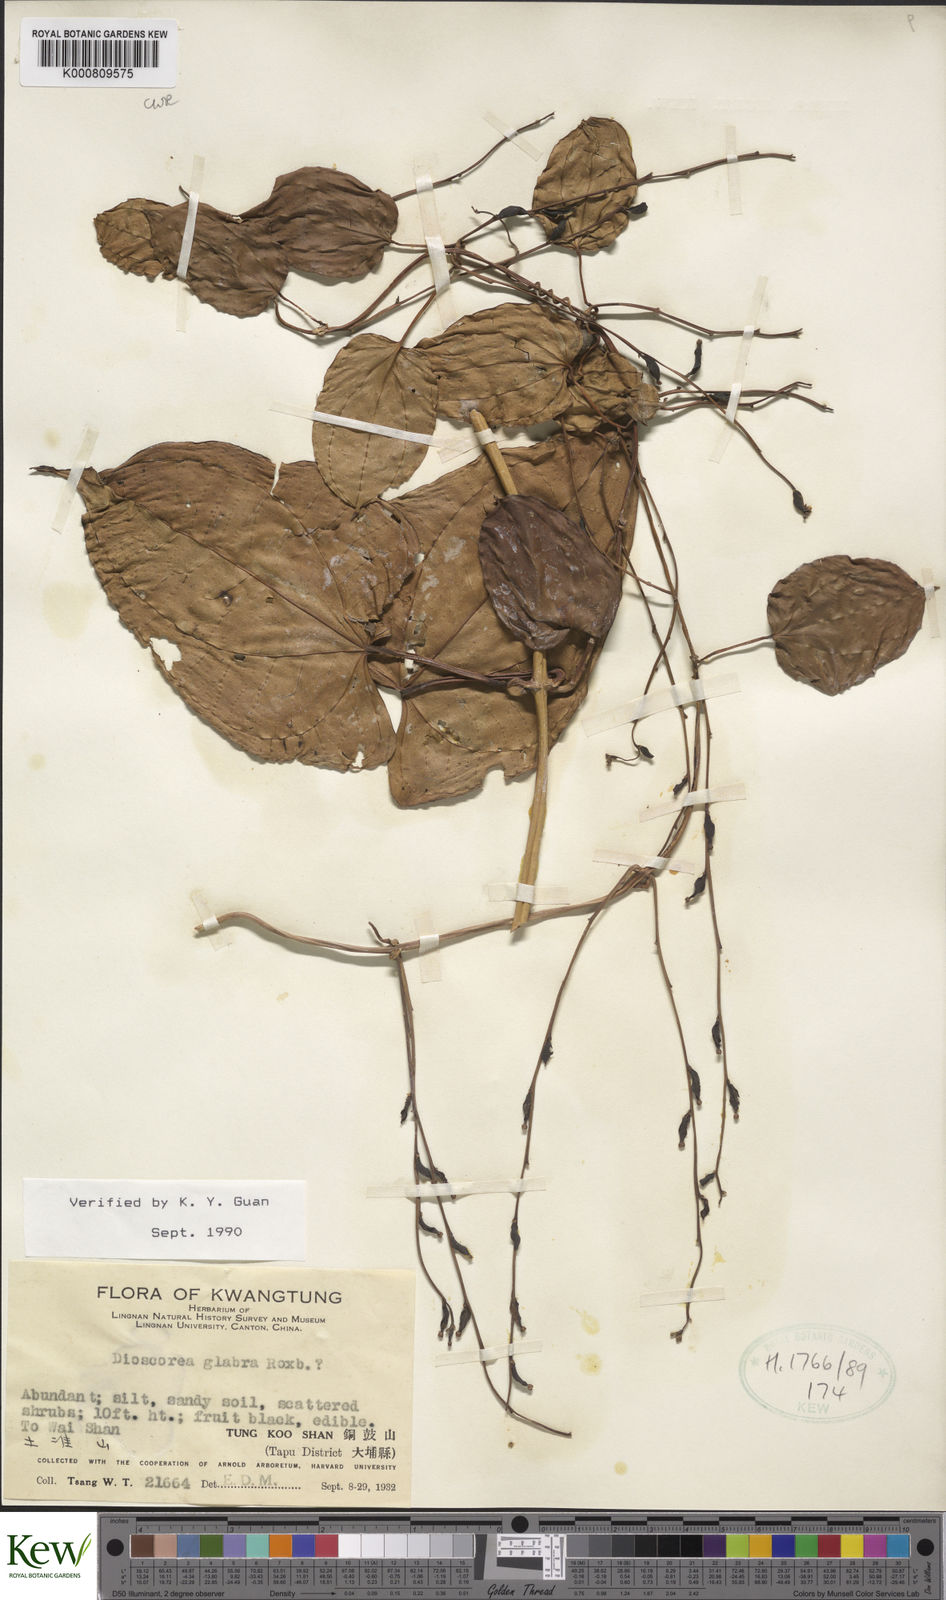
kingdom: Plantae
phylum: Tracheophyta
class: Liliopsida
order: Dioscoreales
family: Dioscoreaceae
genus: Dioscorea
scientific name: Dioscorea glabra
